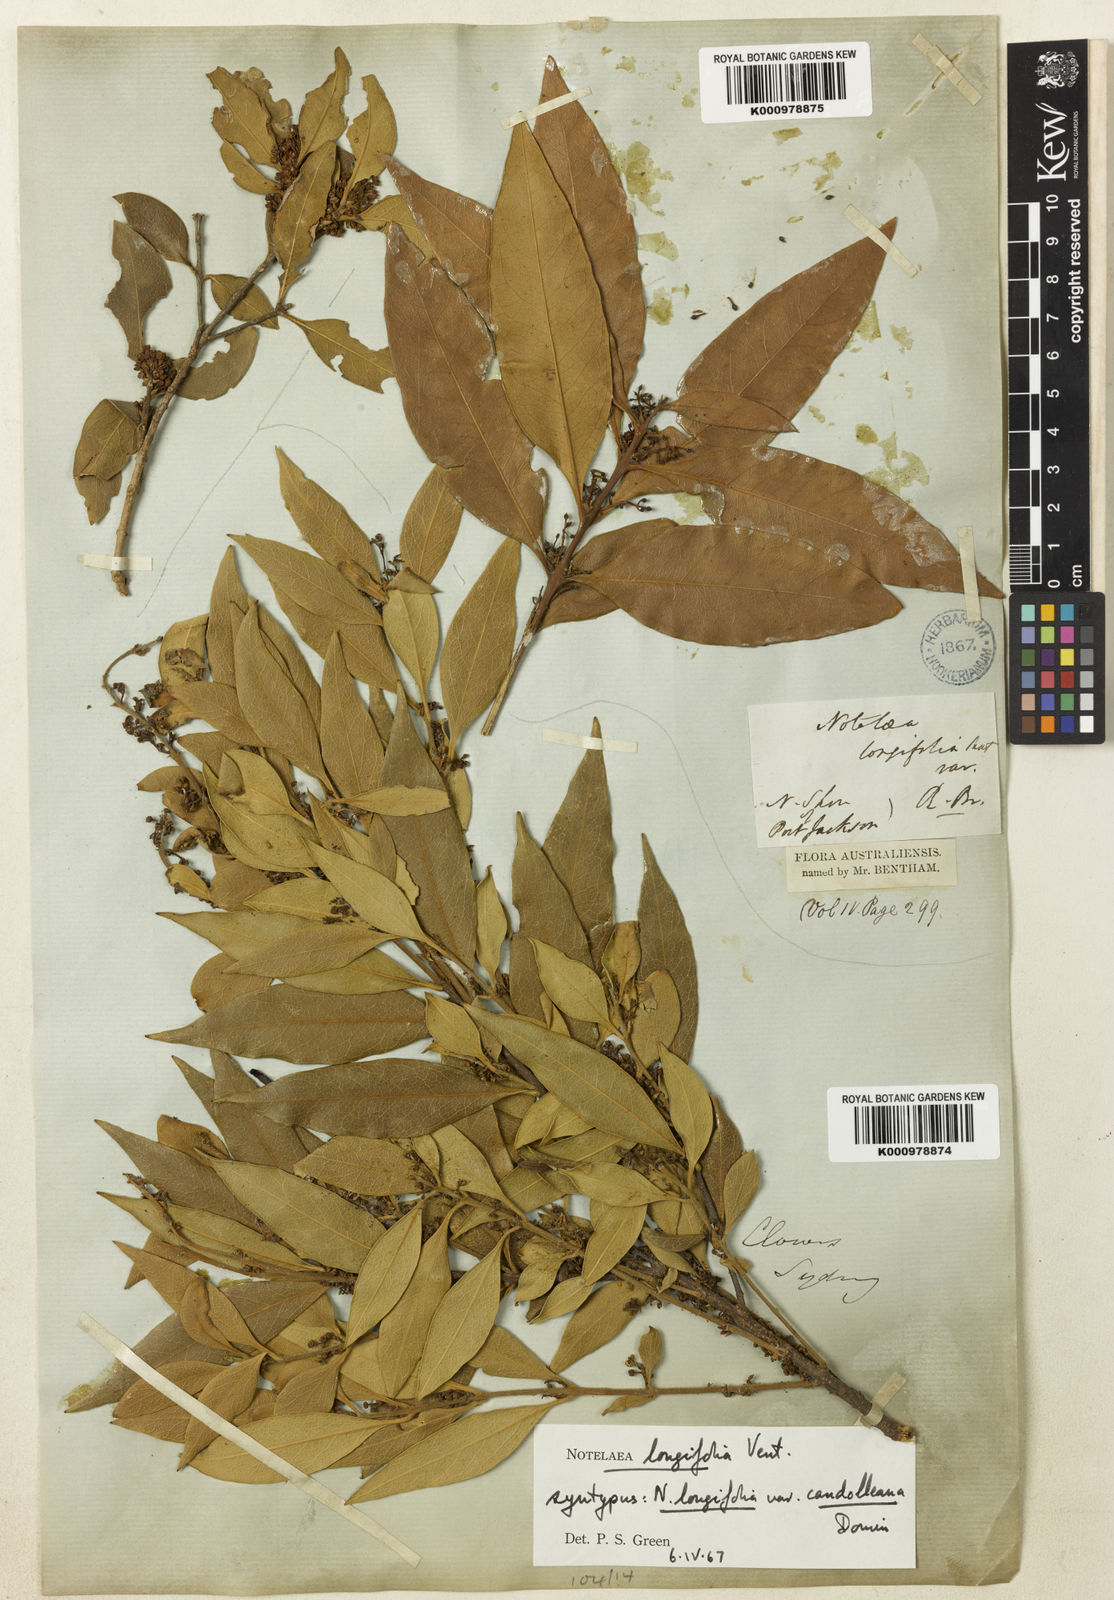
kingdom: Plantae
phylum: Tracheophyta
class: Magnoliopsida
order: Lamiales
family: Oleaceae
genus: Notelaea
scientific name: Notelaea longifolia
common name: Large mock olive
